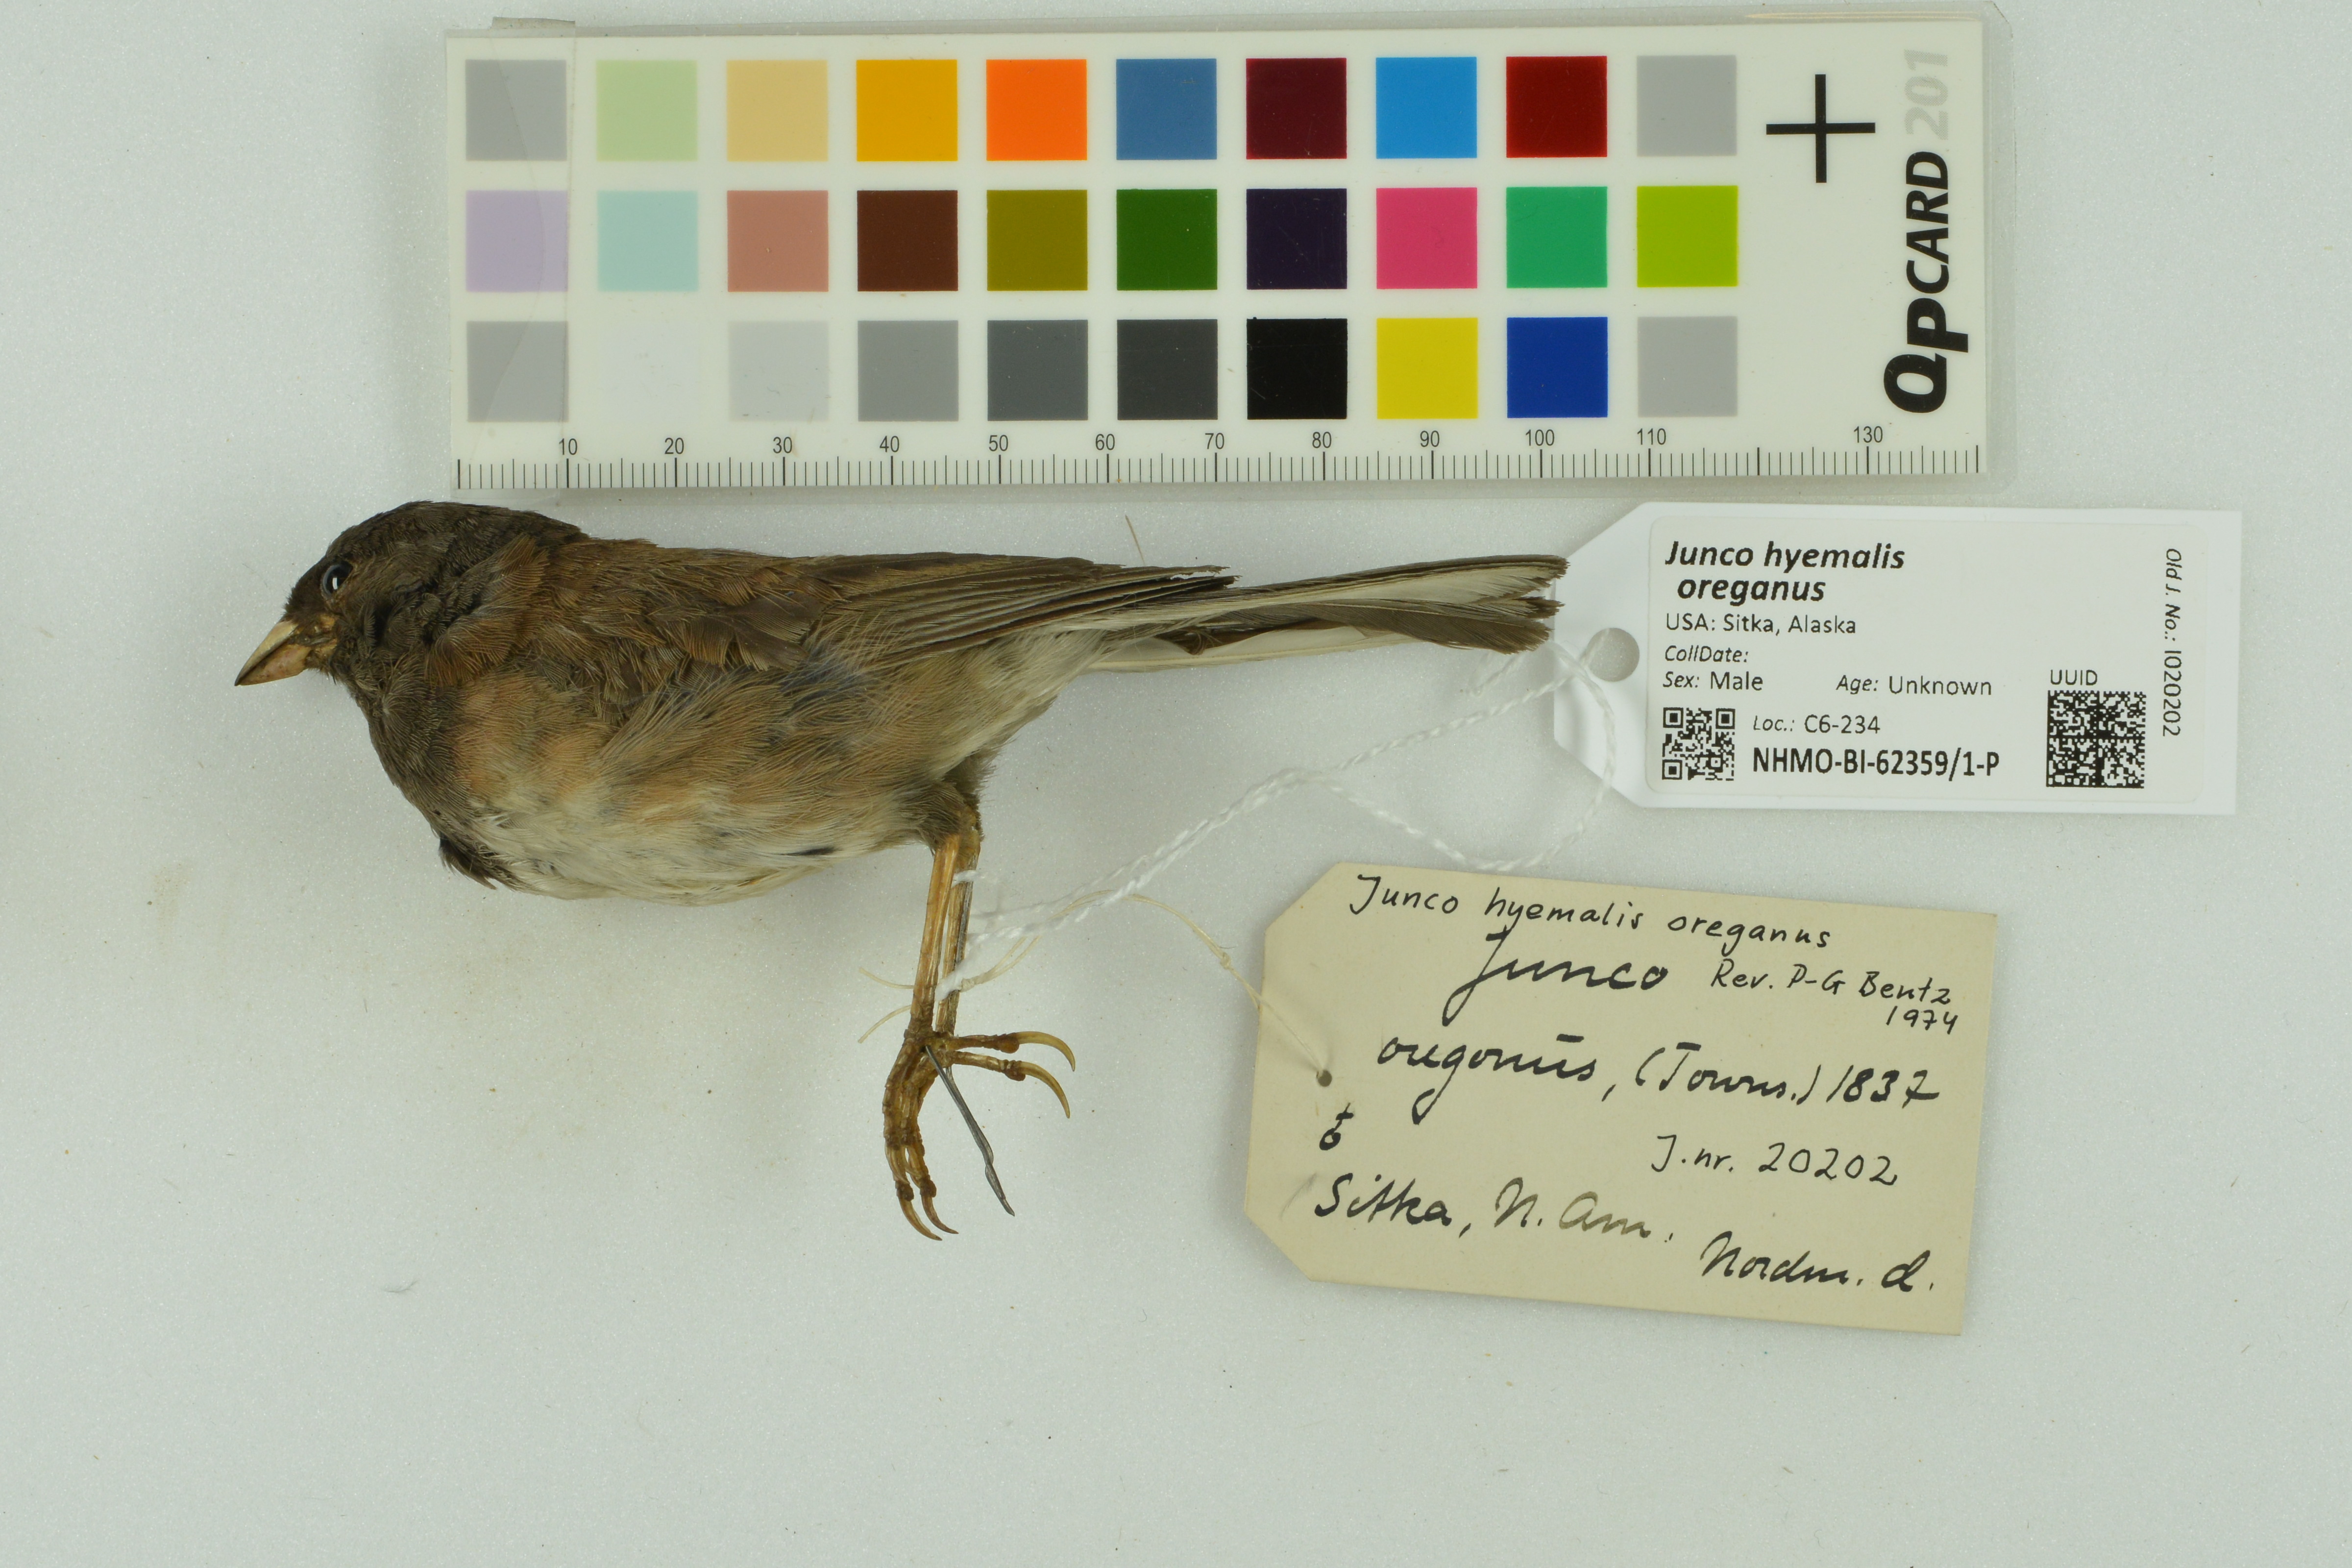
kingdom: Animalia
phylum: Chordata
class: Aves
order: Passeriformes
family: Passerellidae
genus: Junco
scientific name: Junco hyemalis
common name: Dark-eyed junco
